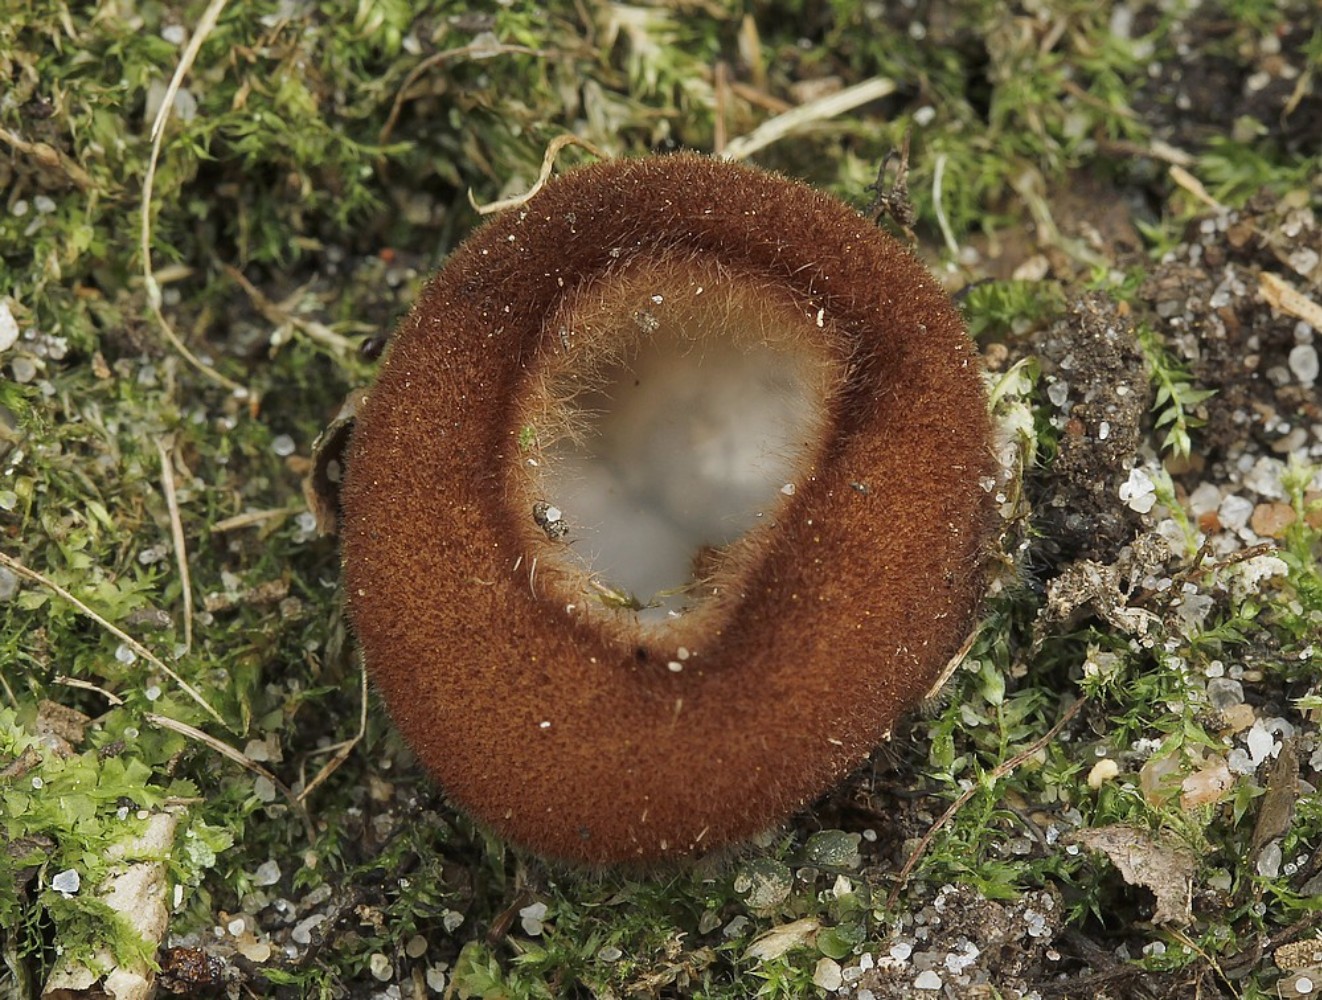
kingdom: Fungi
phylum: Ascomycota
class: Pezizomycetes
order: Pezizales
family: Pyronemataceae
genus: Humaria
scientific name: Humaria hemisphaerica
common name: halvkugleformet børstebæger
